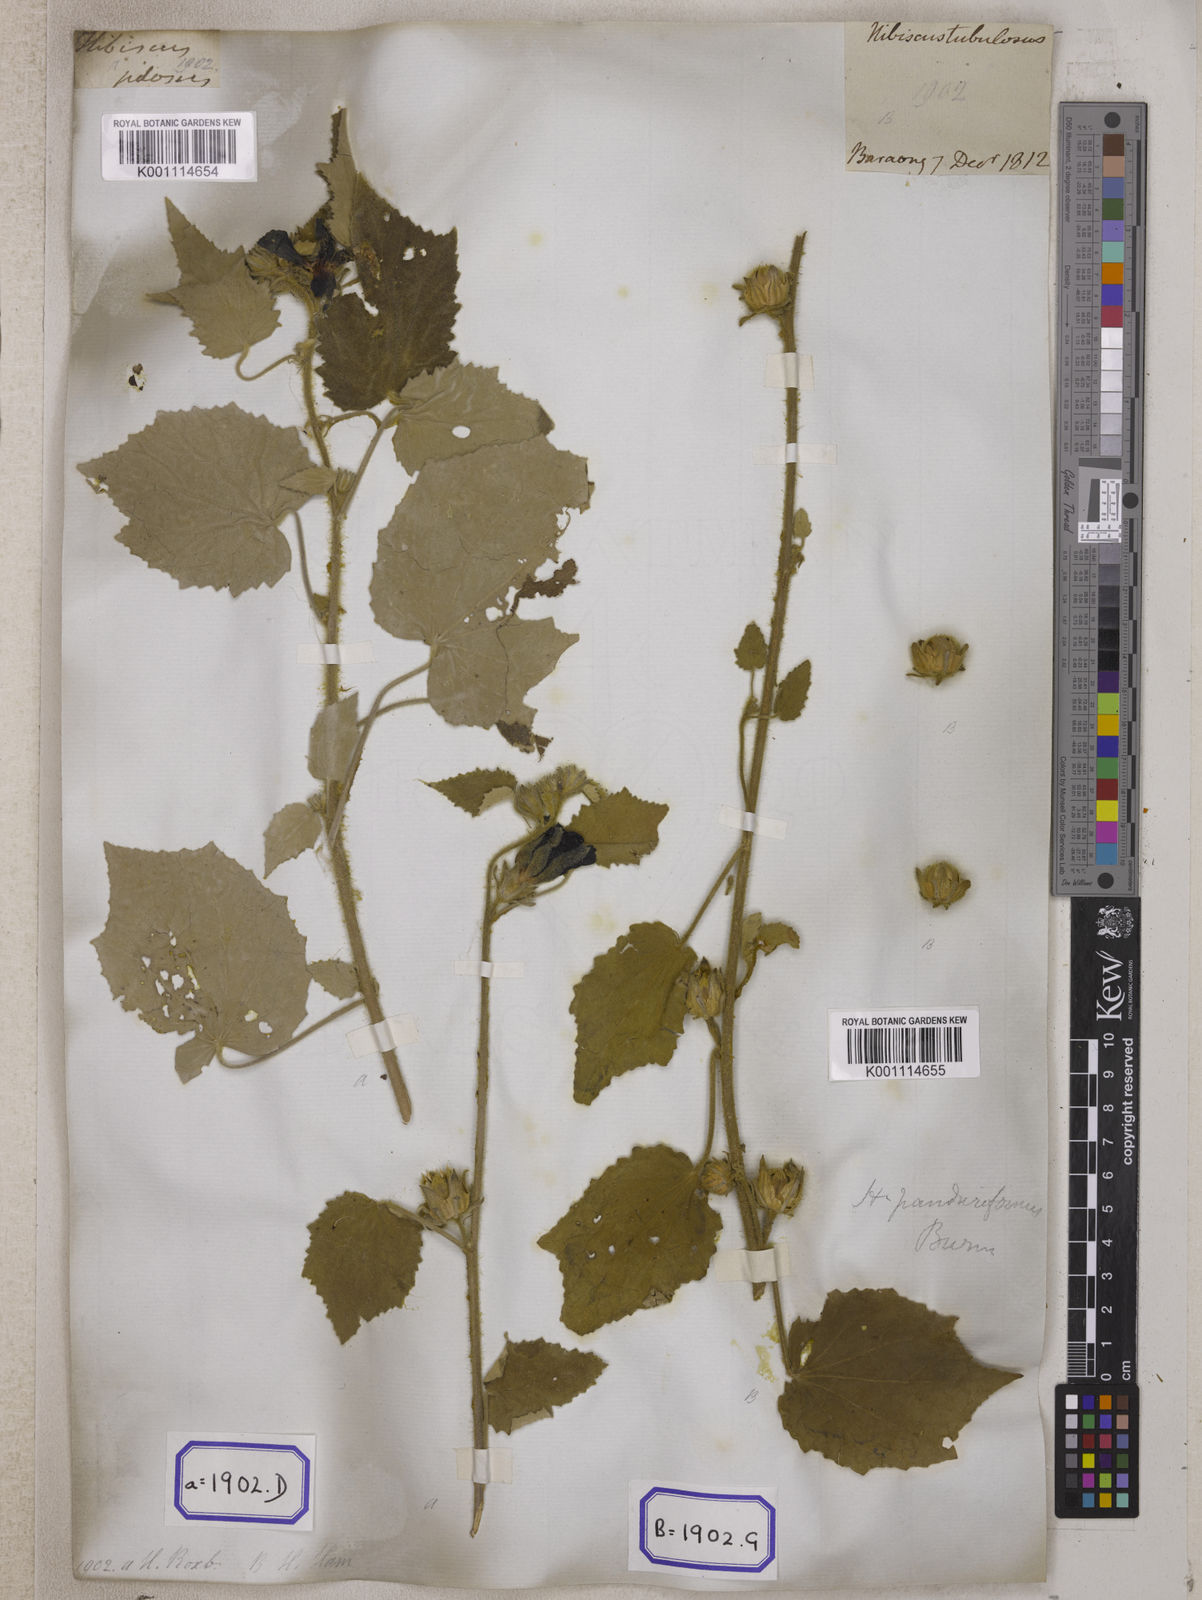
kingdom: Plantae
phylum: Tracheophyta
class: Magnoliopsida
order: Malvales
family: Malvaceae
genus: Talipariti
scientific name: Talipariti macrophyllum
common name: Largeleaf rosemallow
